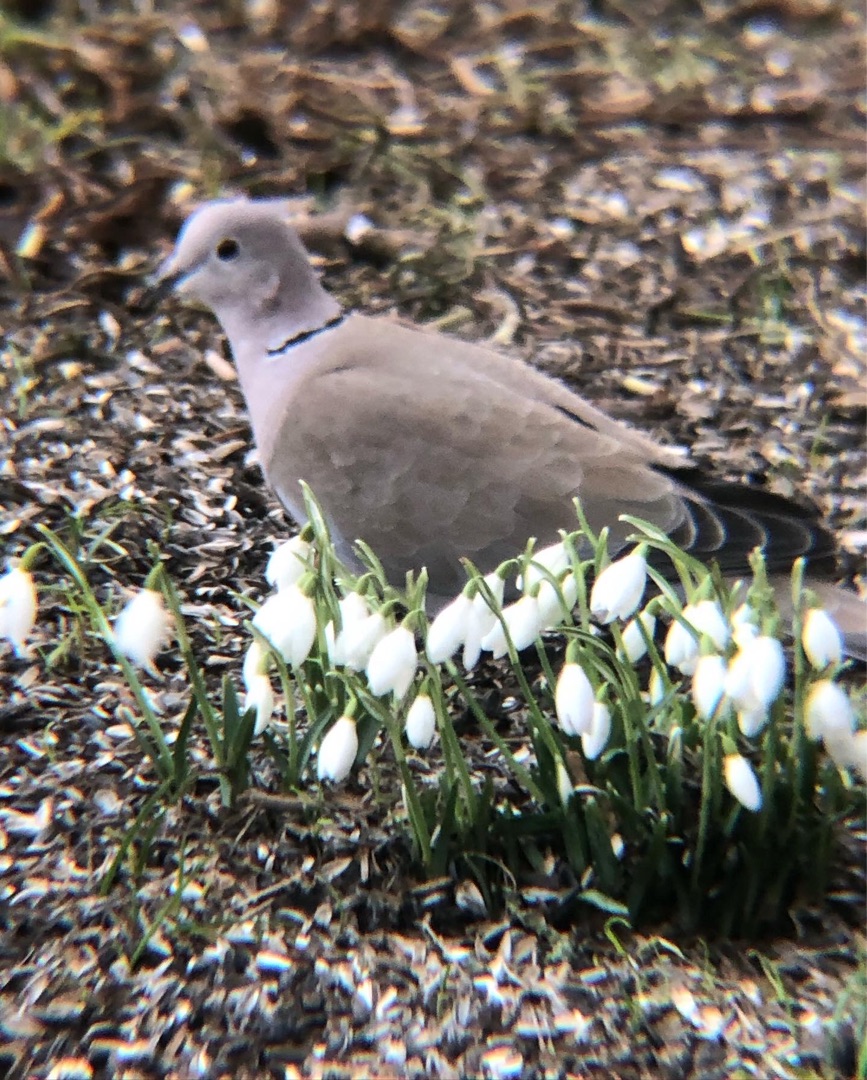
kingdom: Animalia
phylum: Chordata
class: Aves
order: Columbiformes
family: Columbidae
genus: Streptopelia
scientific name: Streptopelia decaocto
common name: Tyrkerdue
